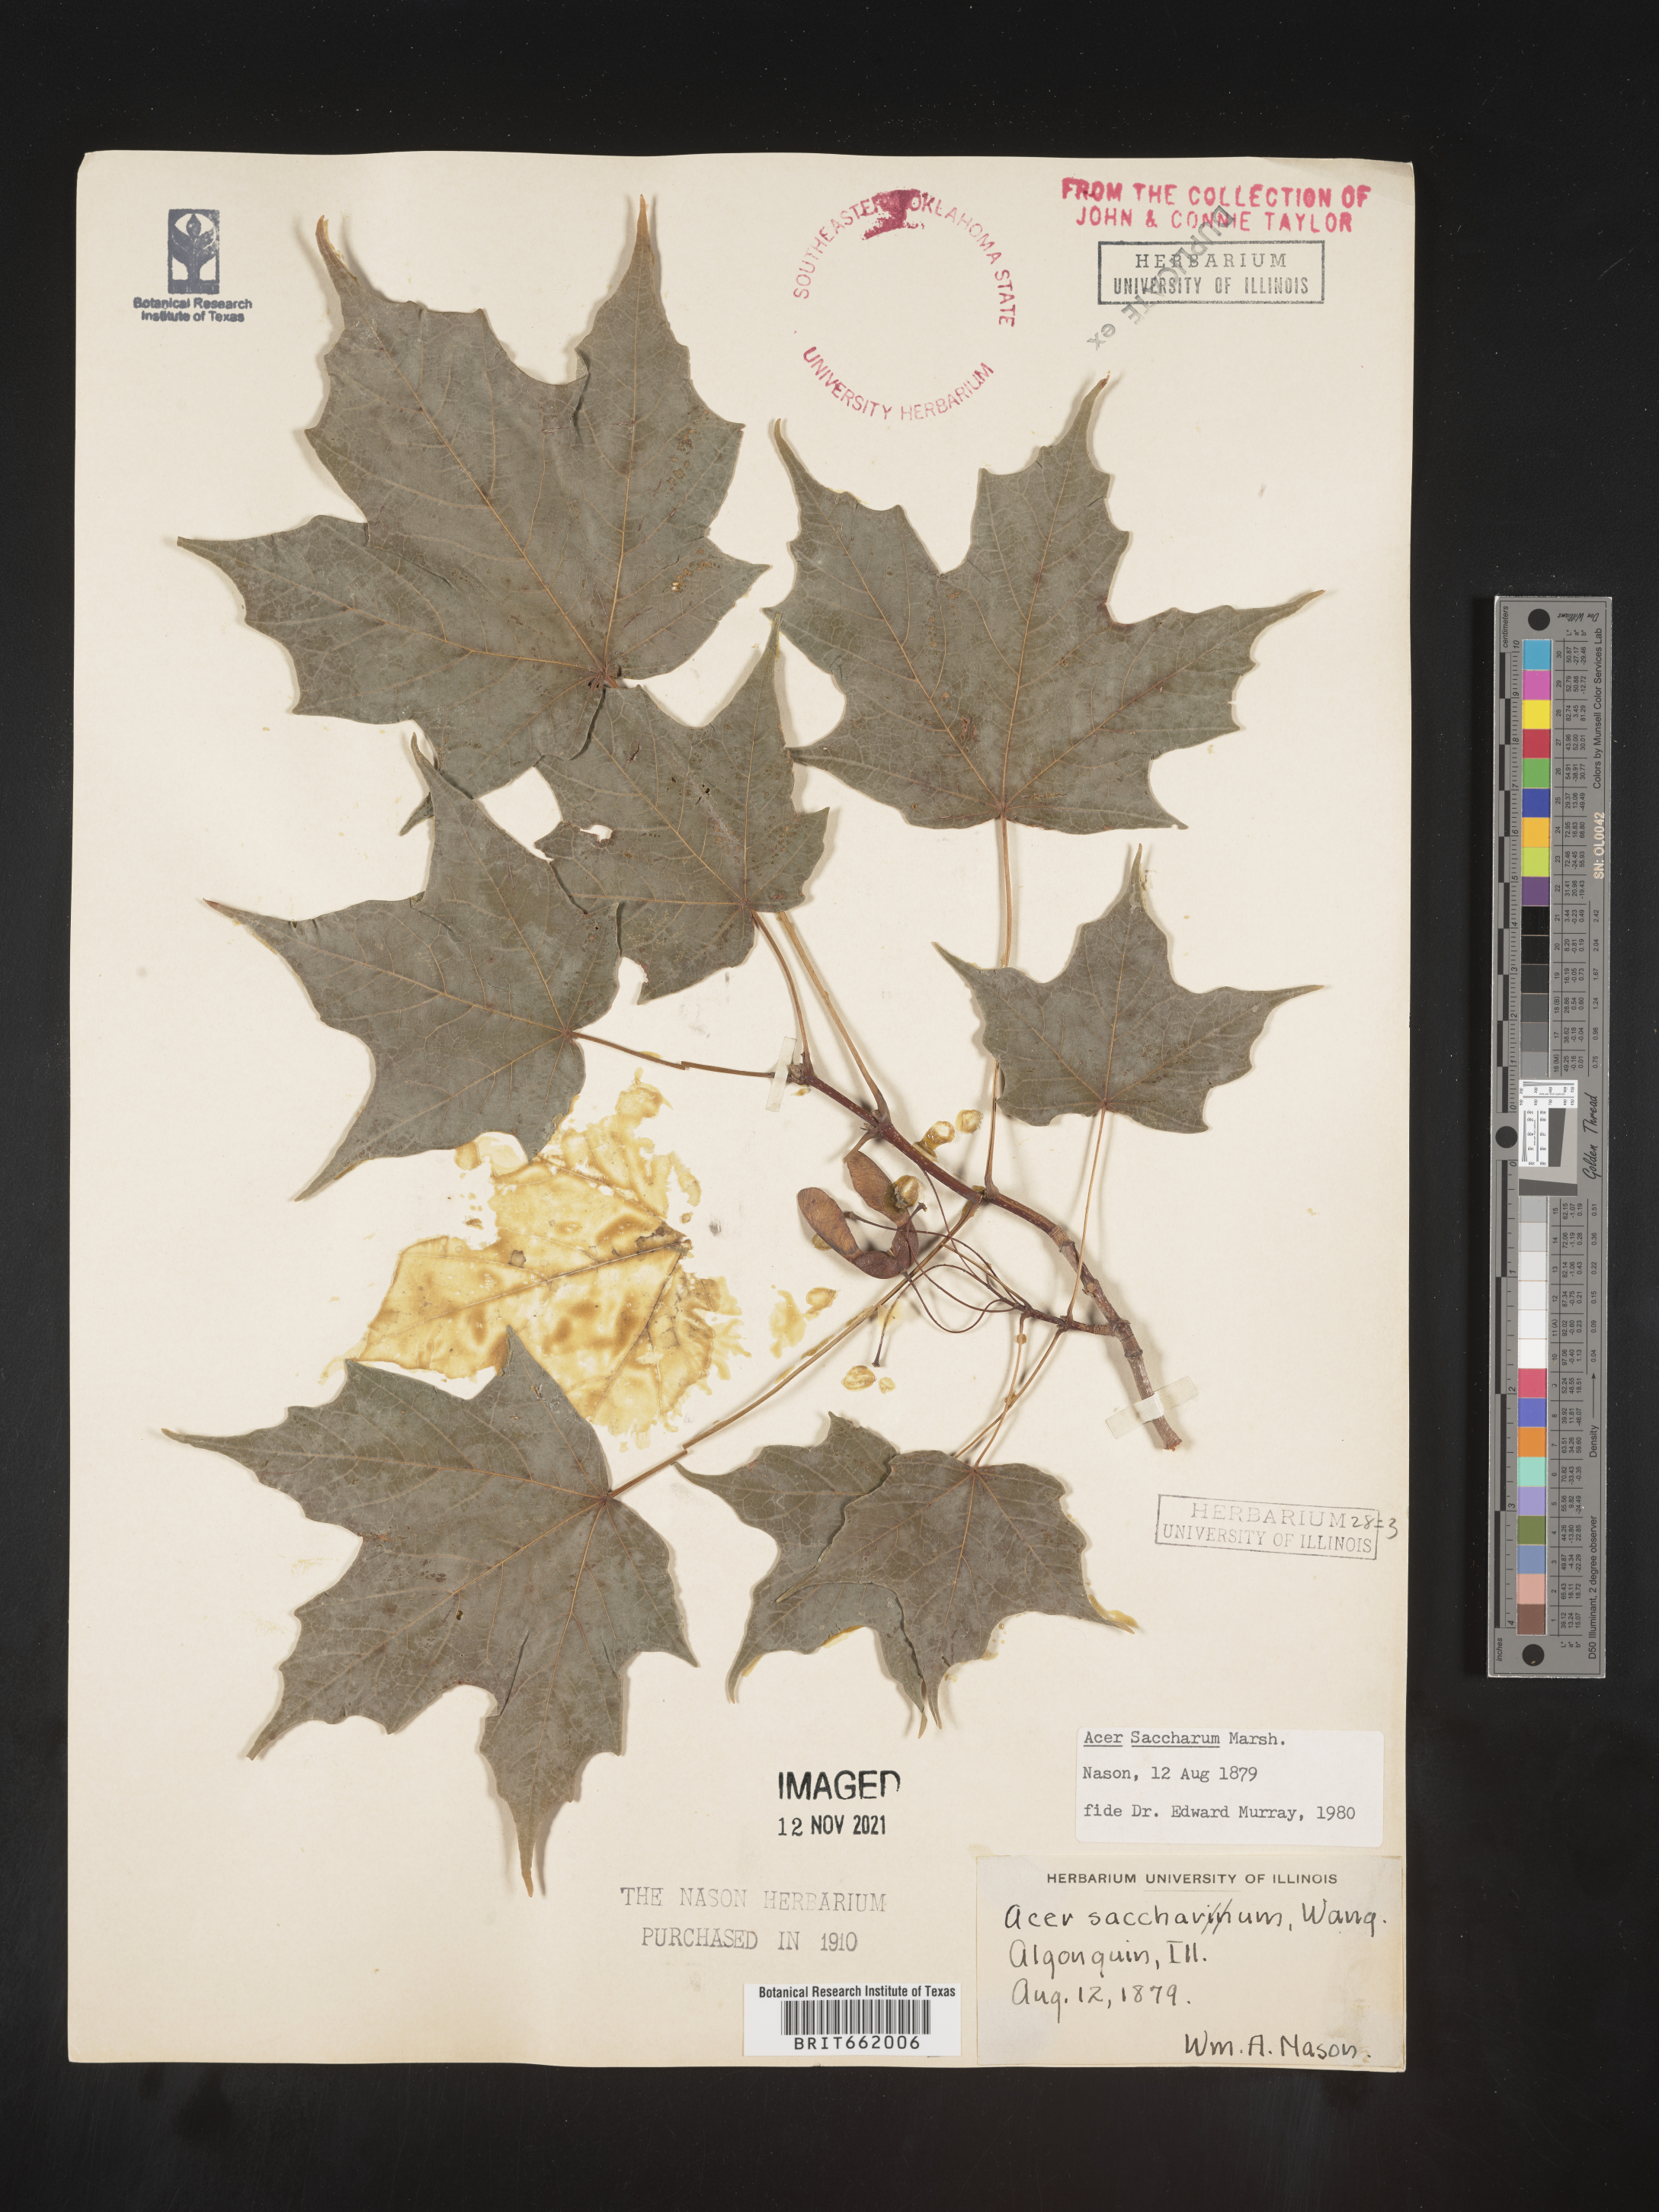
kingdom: Plantae
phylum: Tracheophyta
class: Magnoliopsida
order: Sapindales
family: Sapindaceae
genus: Acer
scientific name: Acer saccharum
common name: Sugar maple
